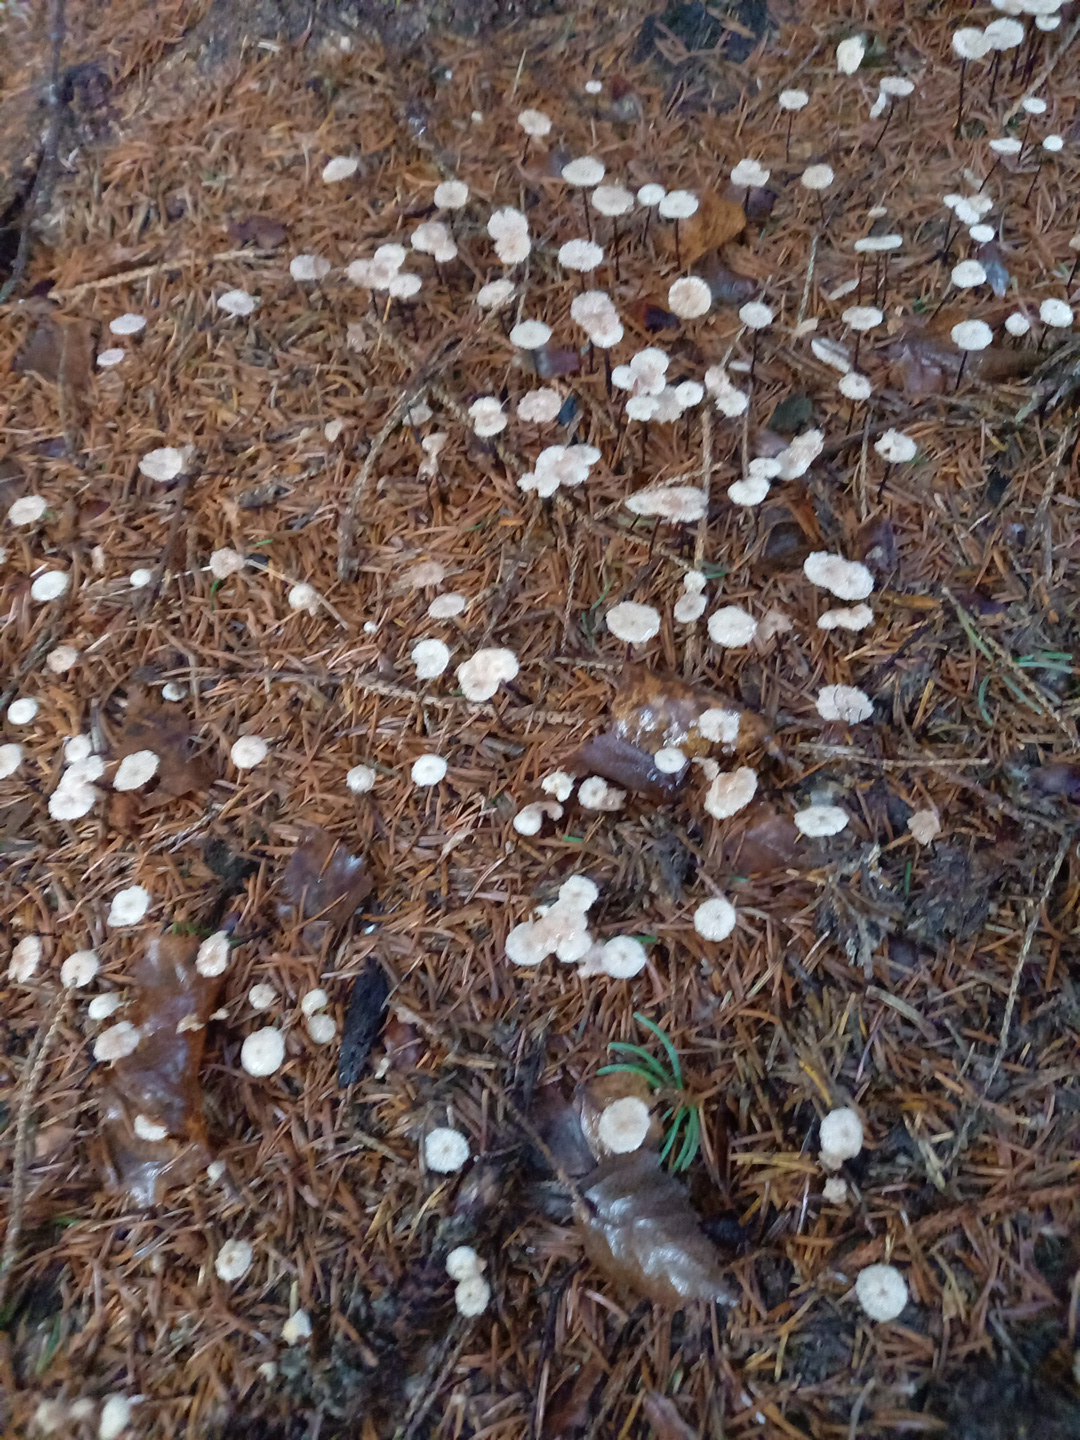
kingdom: Fungi
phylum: Basidiomycota
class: Agaricomycetes
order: Agaricales
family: Omphalotaceae
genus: Paragymnopus
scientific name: Paragymnopus perforans
